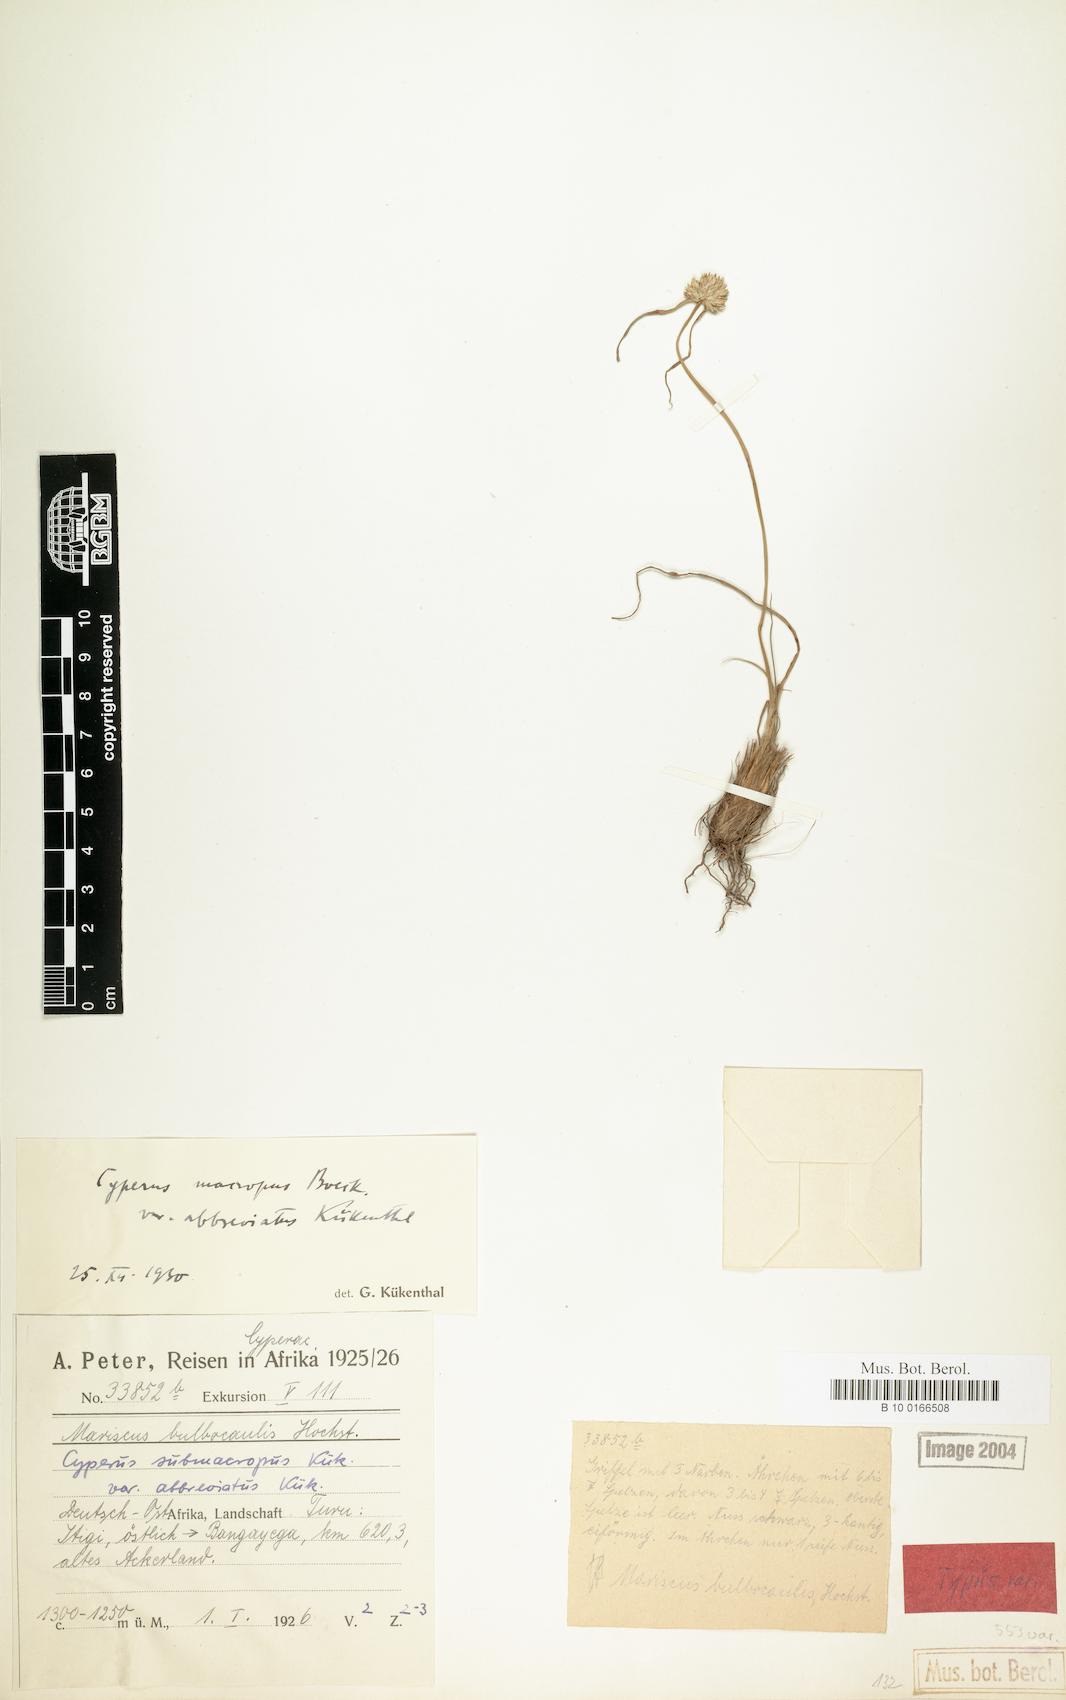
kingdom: Plantae
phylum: Tracheophyta
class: Liliopsida
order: Poales
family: Cyperaceae
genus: Cyperus
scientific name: Cyperus mollipes
